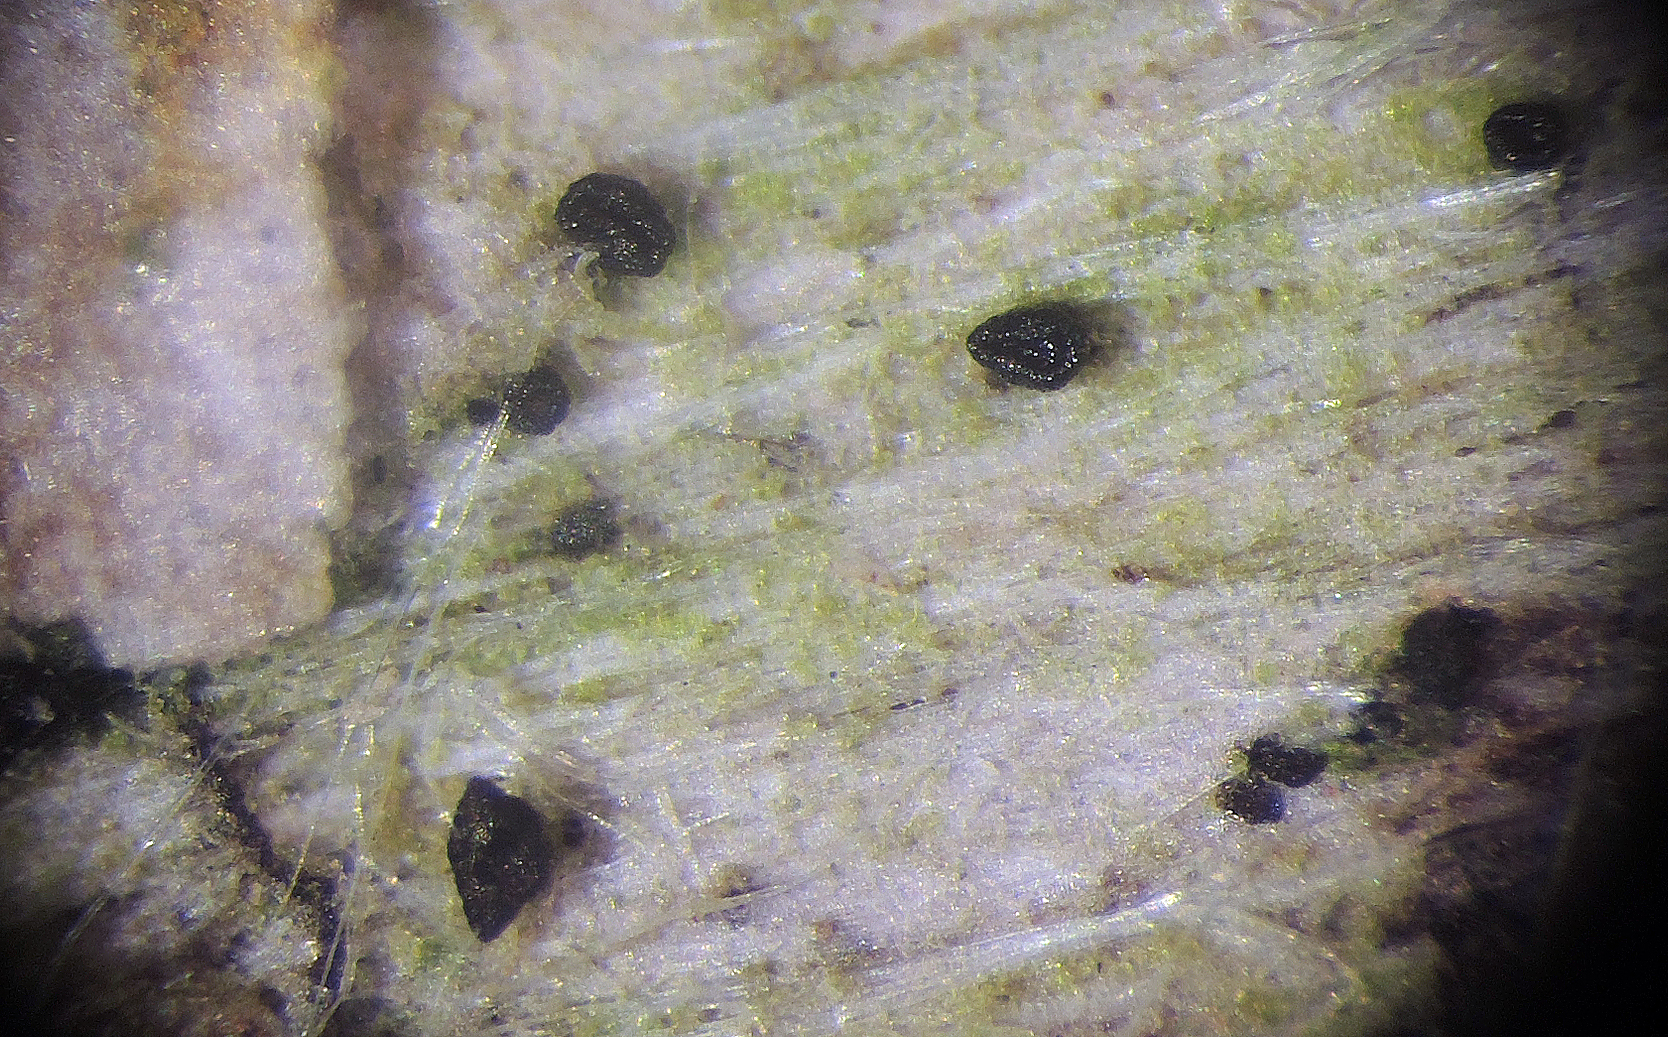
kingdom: Fungi
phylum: Ascomycota
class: Leotiomycetes
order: Helotiales
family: Helotiaceae
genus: Durella
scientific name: Durella connivens
